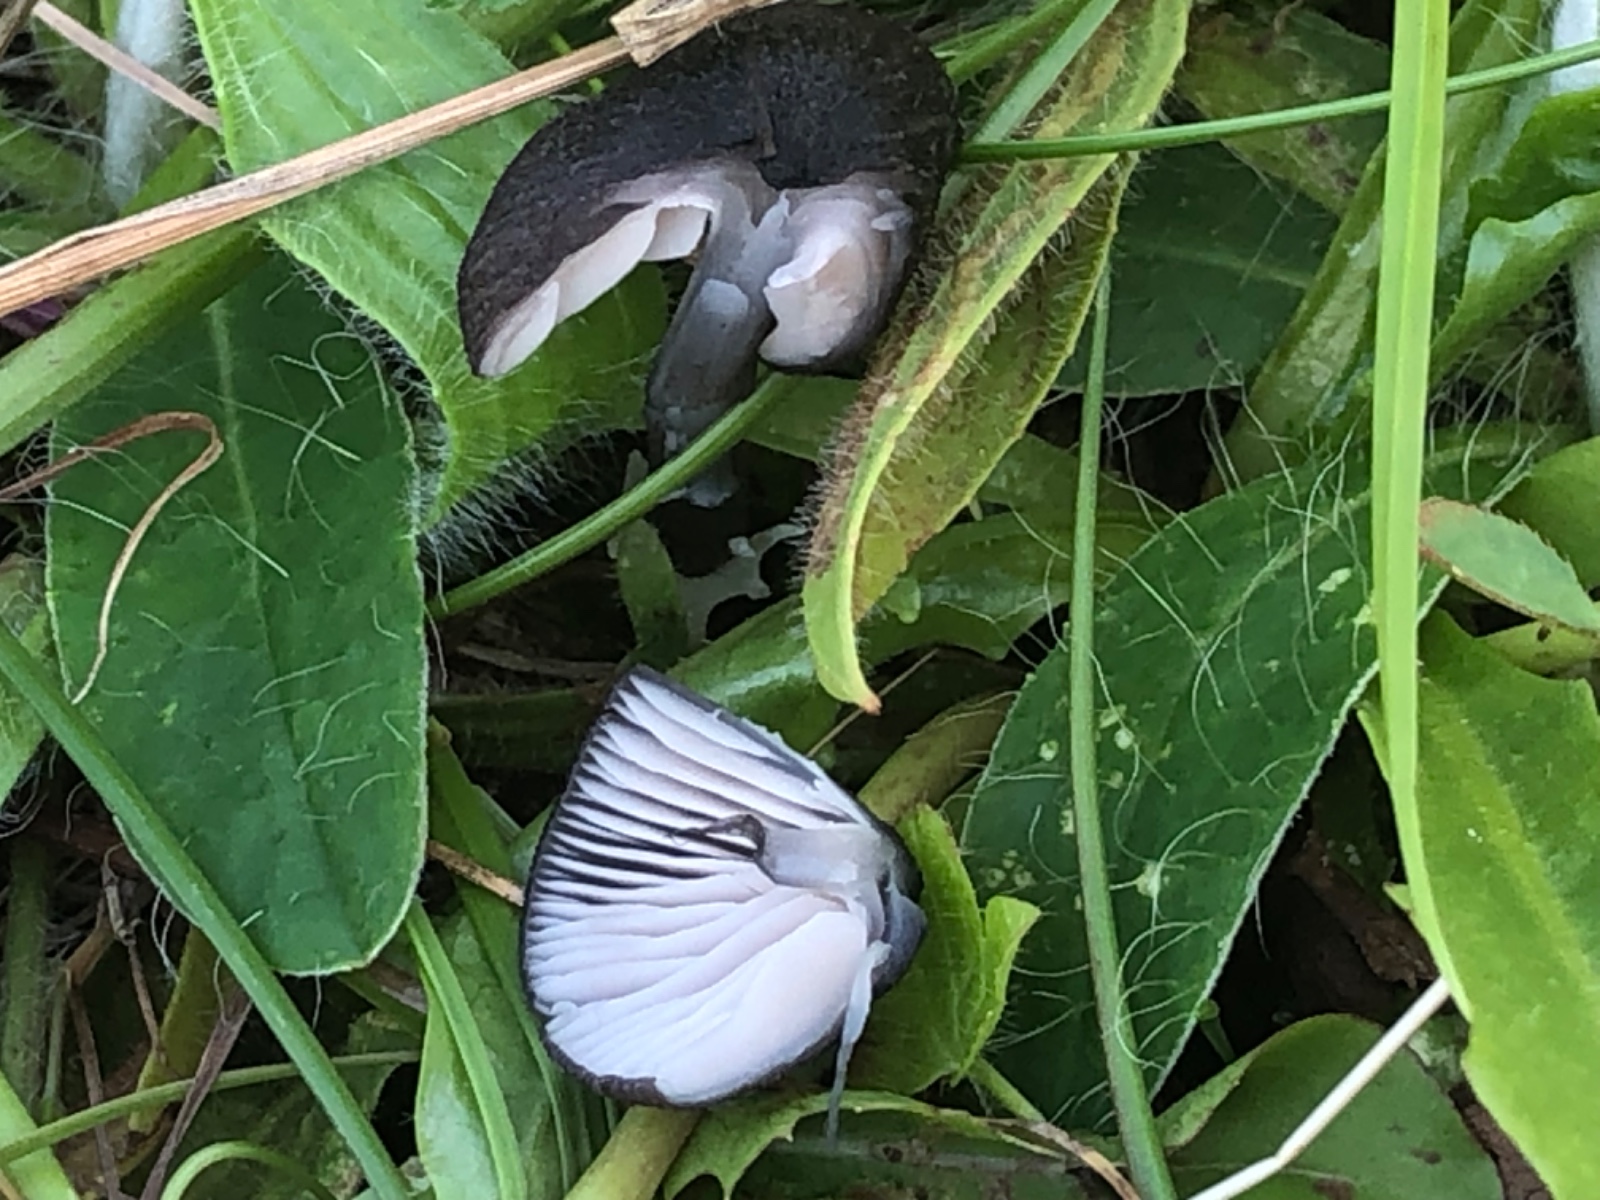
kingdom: Fungi
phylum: Basidiomycota
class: Agaricomycetes
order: Agaricales
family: Entolomataceae
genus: Entoloma
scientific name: Entoloma chalybeum
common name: blåbladet rødblad
